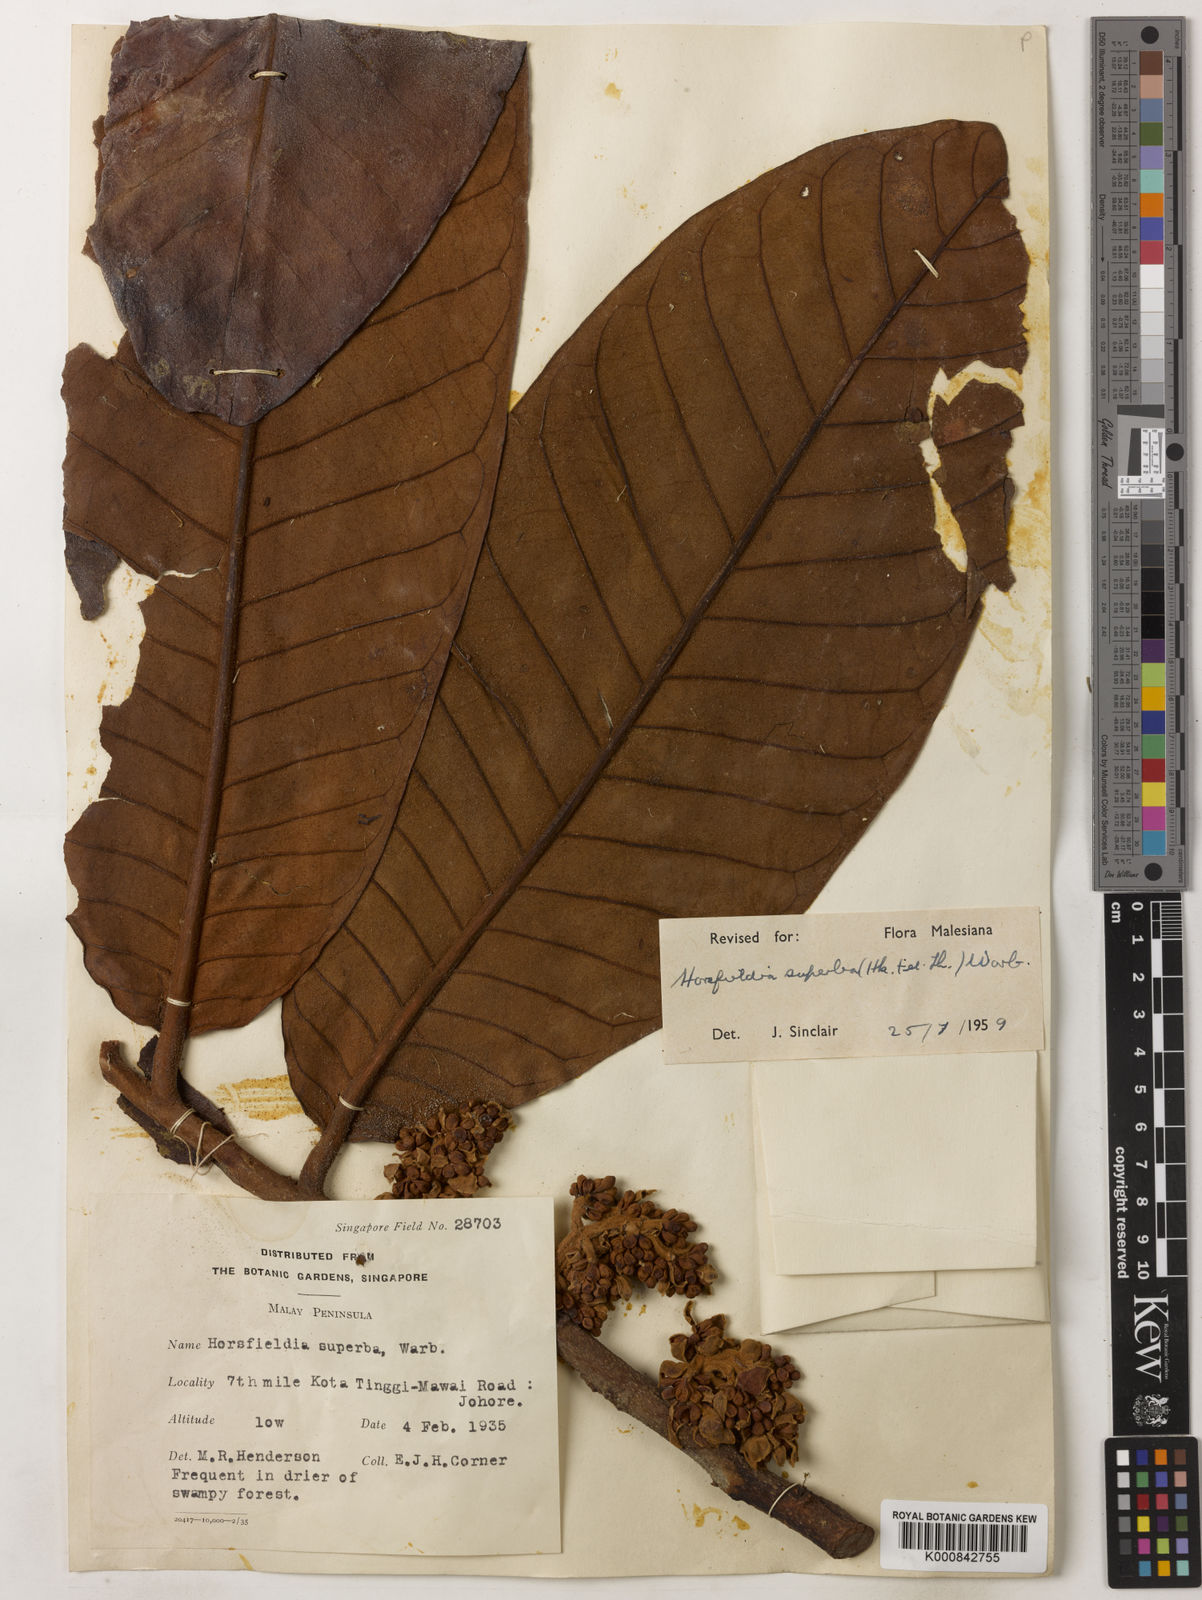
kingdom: Plantae
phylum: Tracheophyta
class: Magnoliopsida
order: Magnoliales
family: Myristicaceae
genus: Horsfieldia
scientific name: Horsfieldia superba
